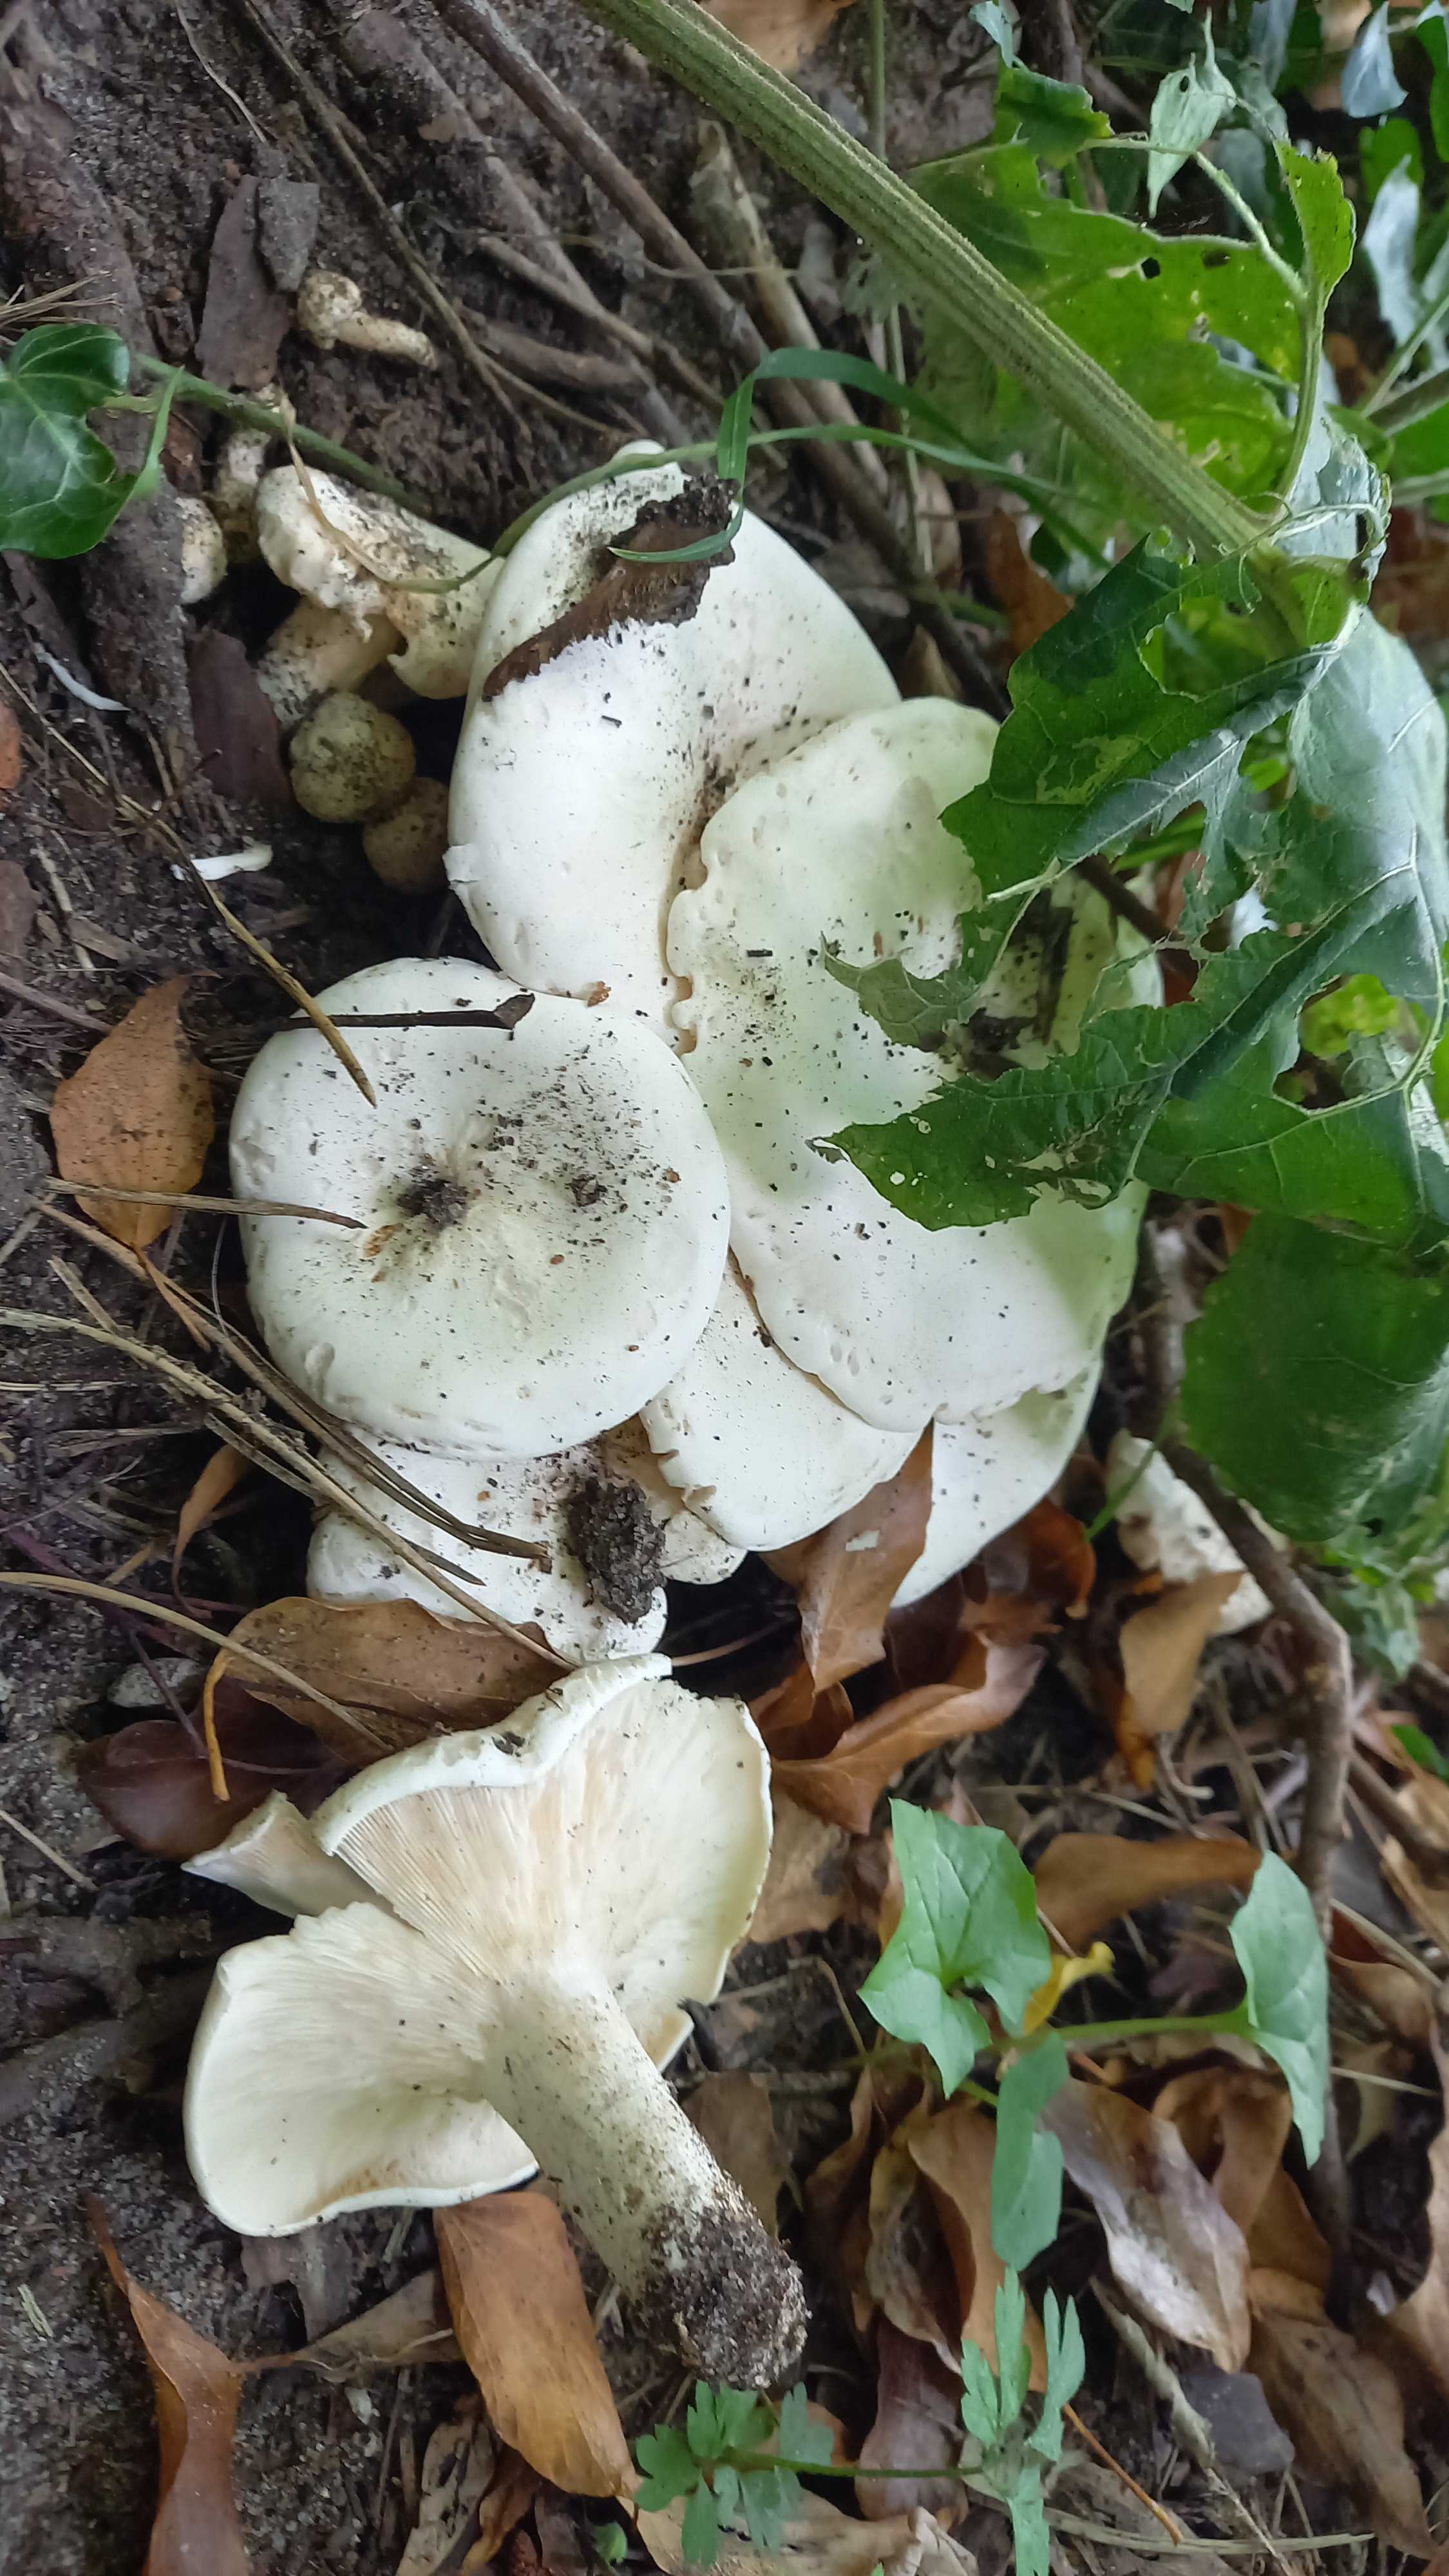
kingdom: Fungi
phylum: Basidiomycota
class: Agaricomycetes
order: Agaricales
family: Entolomataceae
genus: Clitopilus
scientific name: Clitopilus prunulus
